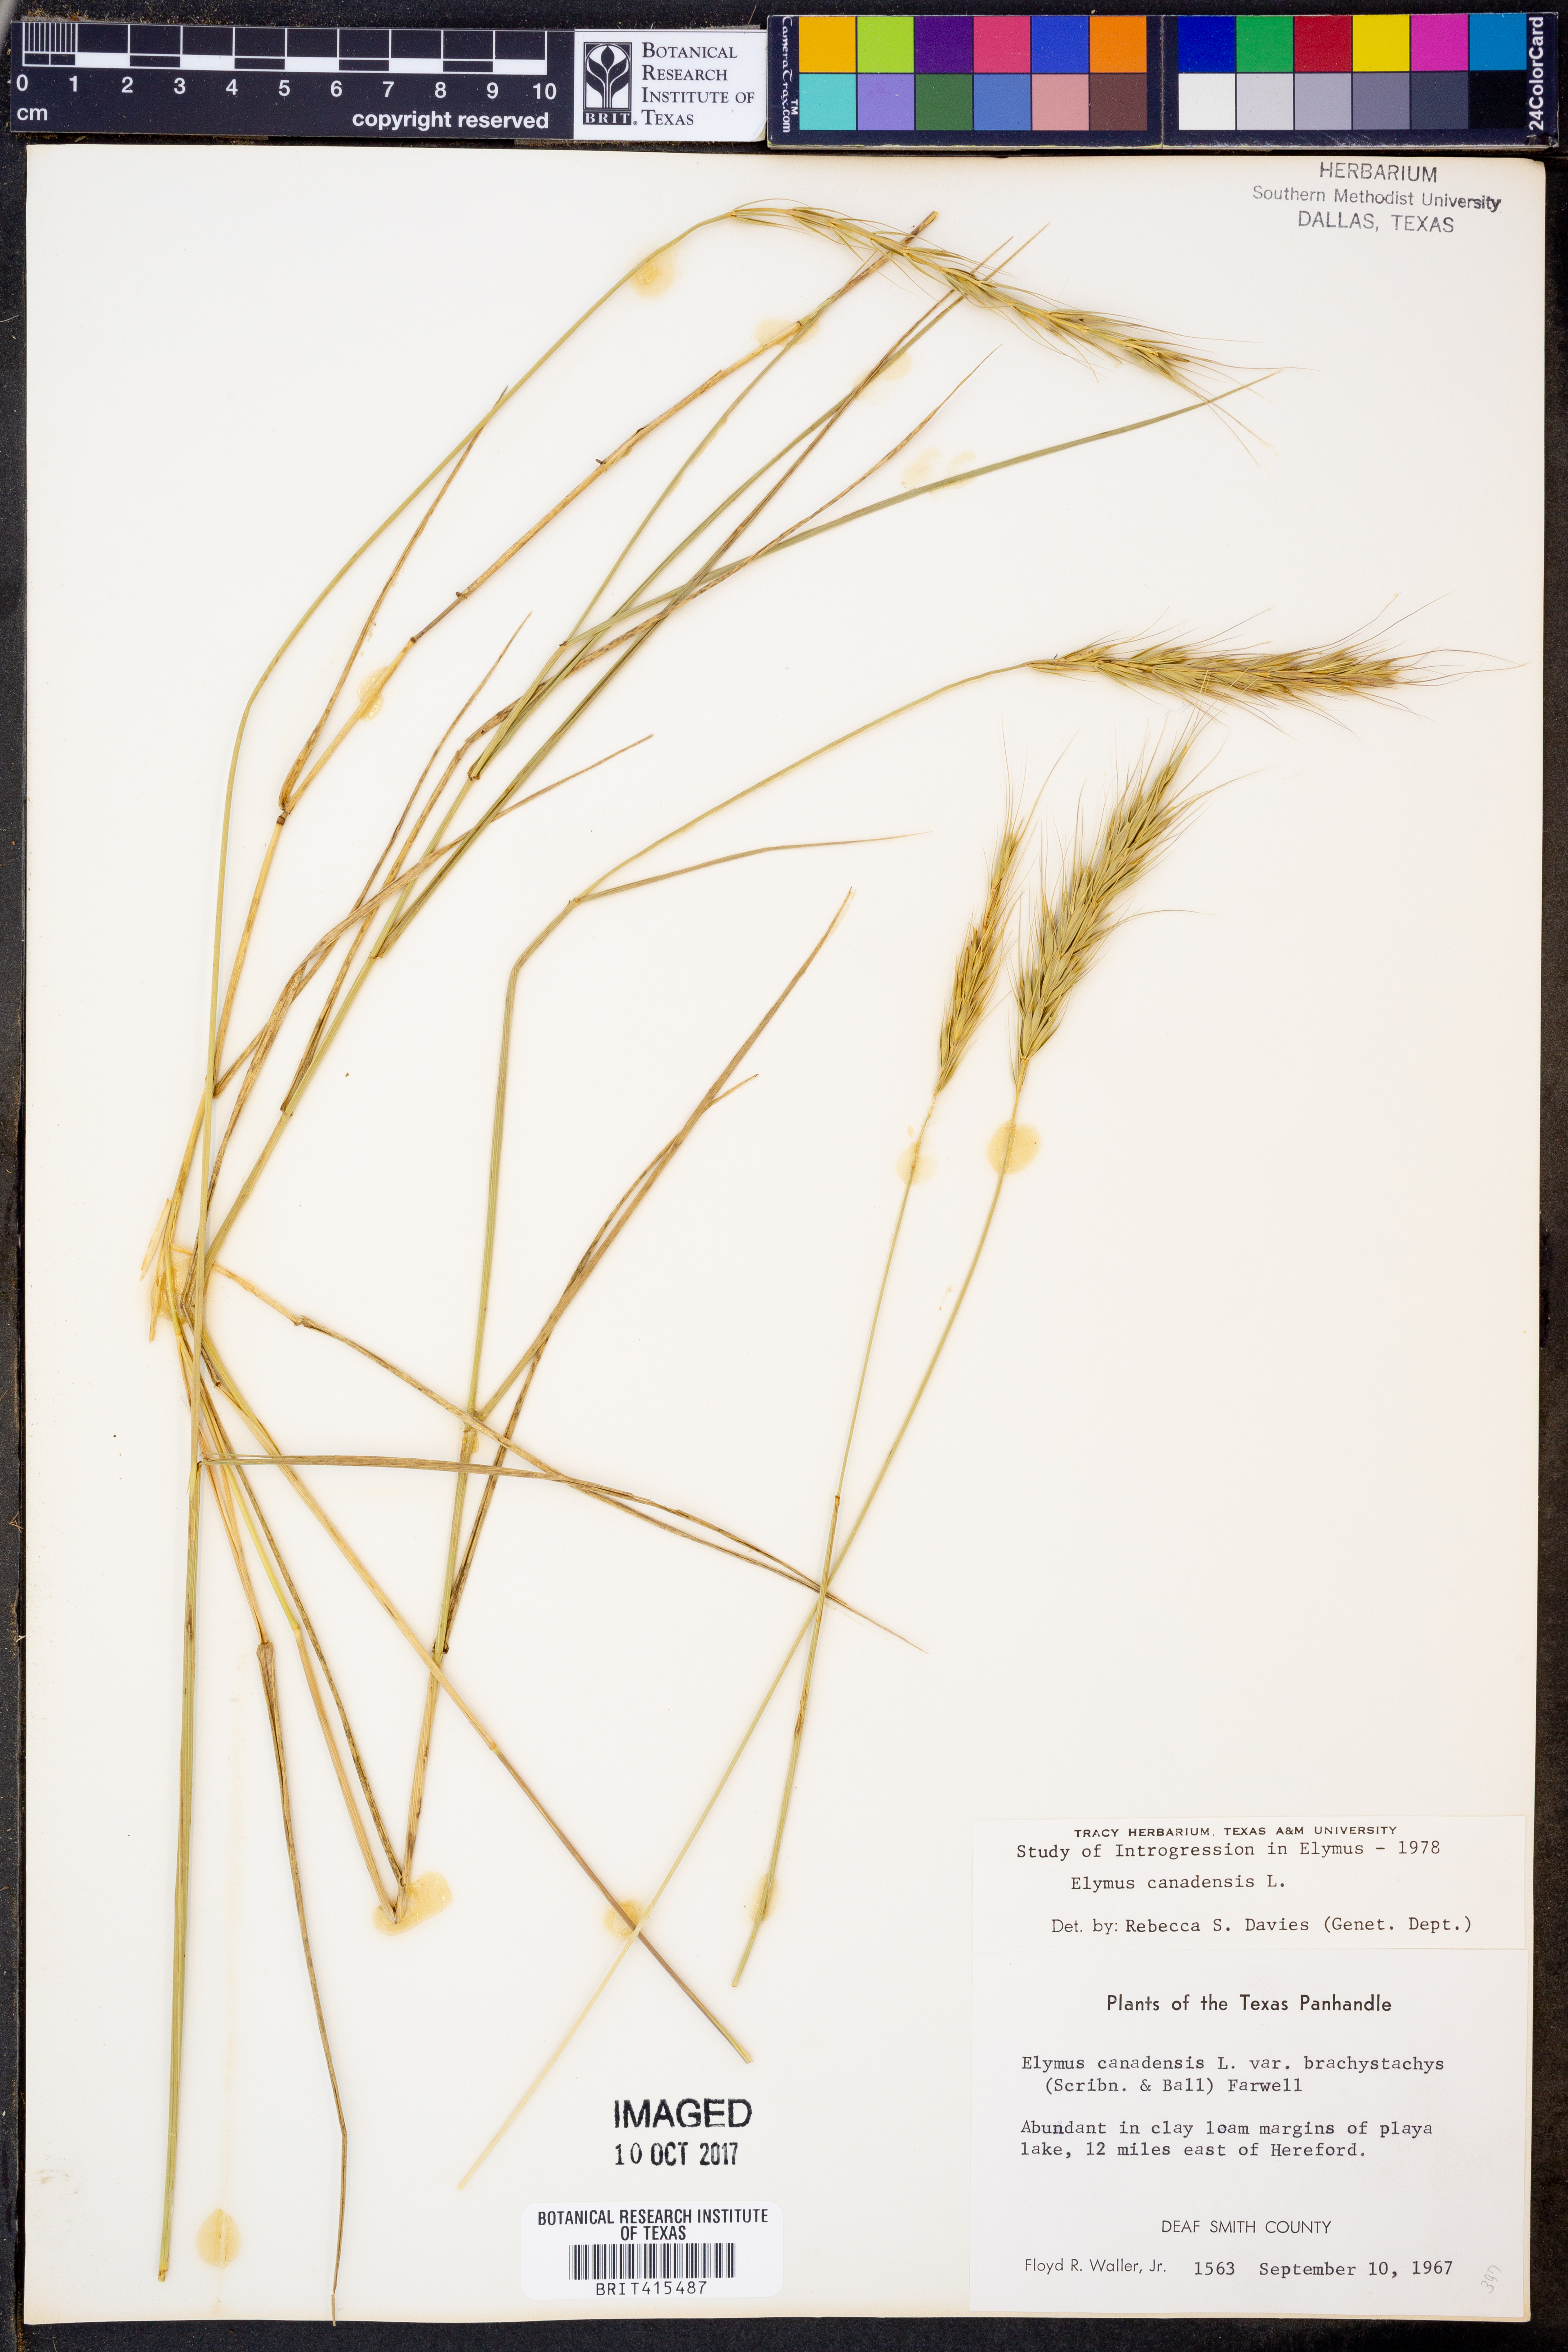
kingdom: Plantae
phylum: Tracheophyta
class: Liliopsida
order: Poales
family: Poaceae
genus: Elymus
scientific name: Elymus canadensis
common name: Canada wild rye
